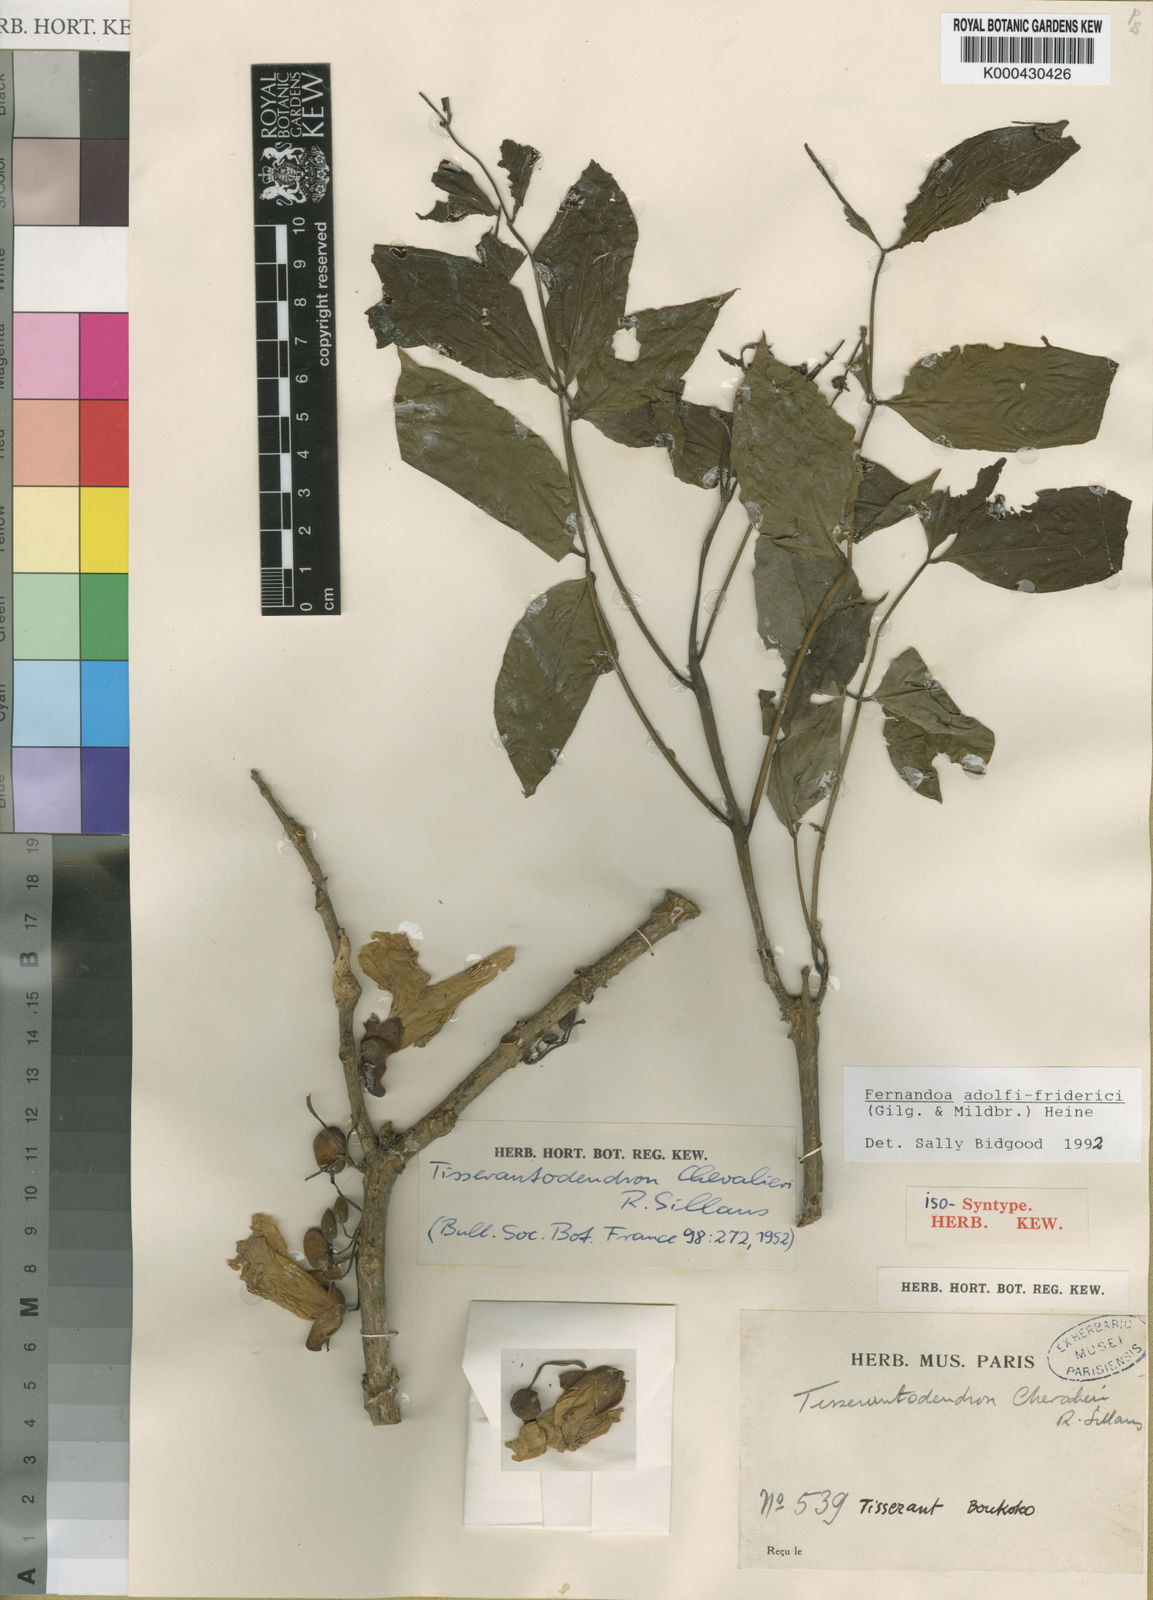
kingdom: Plantae
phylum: Tracheophyta
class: Magnoliopsida
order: Lamiales
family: Bignoniaceae
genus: Fernandoa
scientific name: Fernandoa
